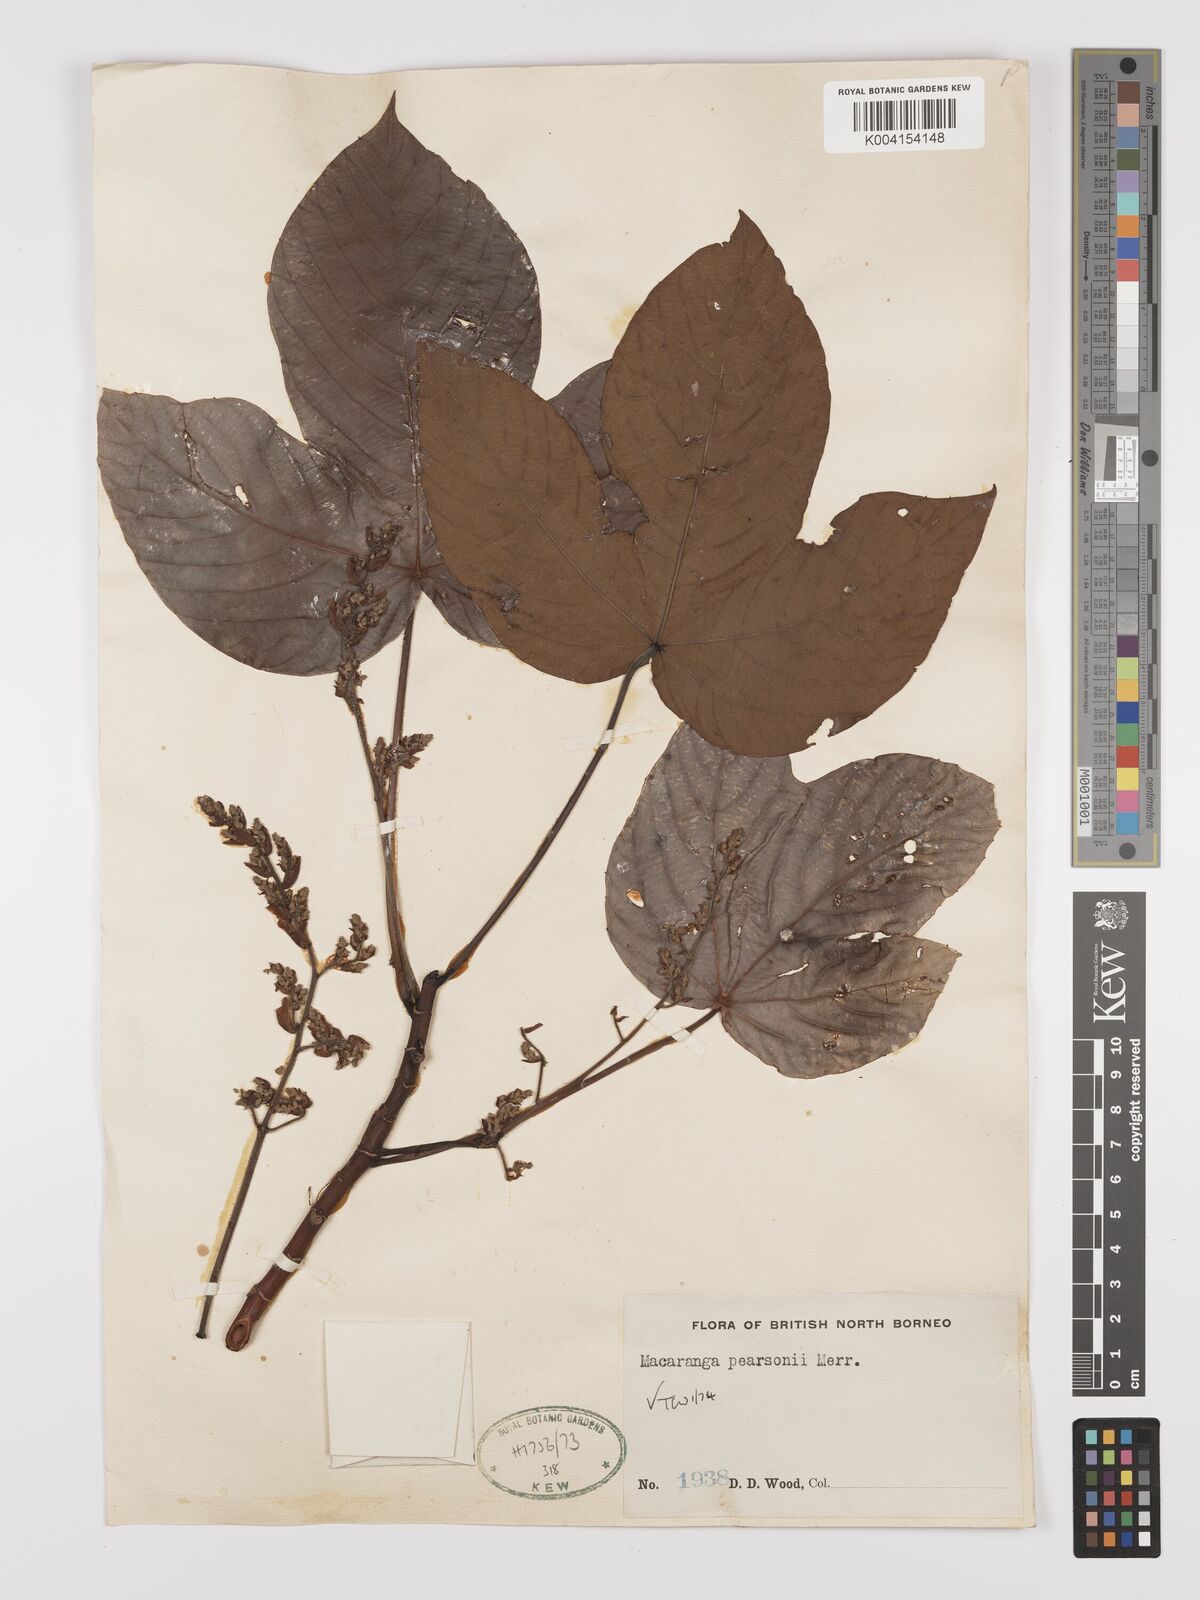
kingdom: Plantae
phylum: Tracheophyta
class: Magnoliopsida
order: Malpighiales
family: Euphorbiaceae
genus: Macaranga
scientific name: Macaranga pearsonii
